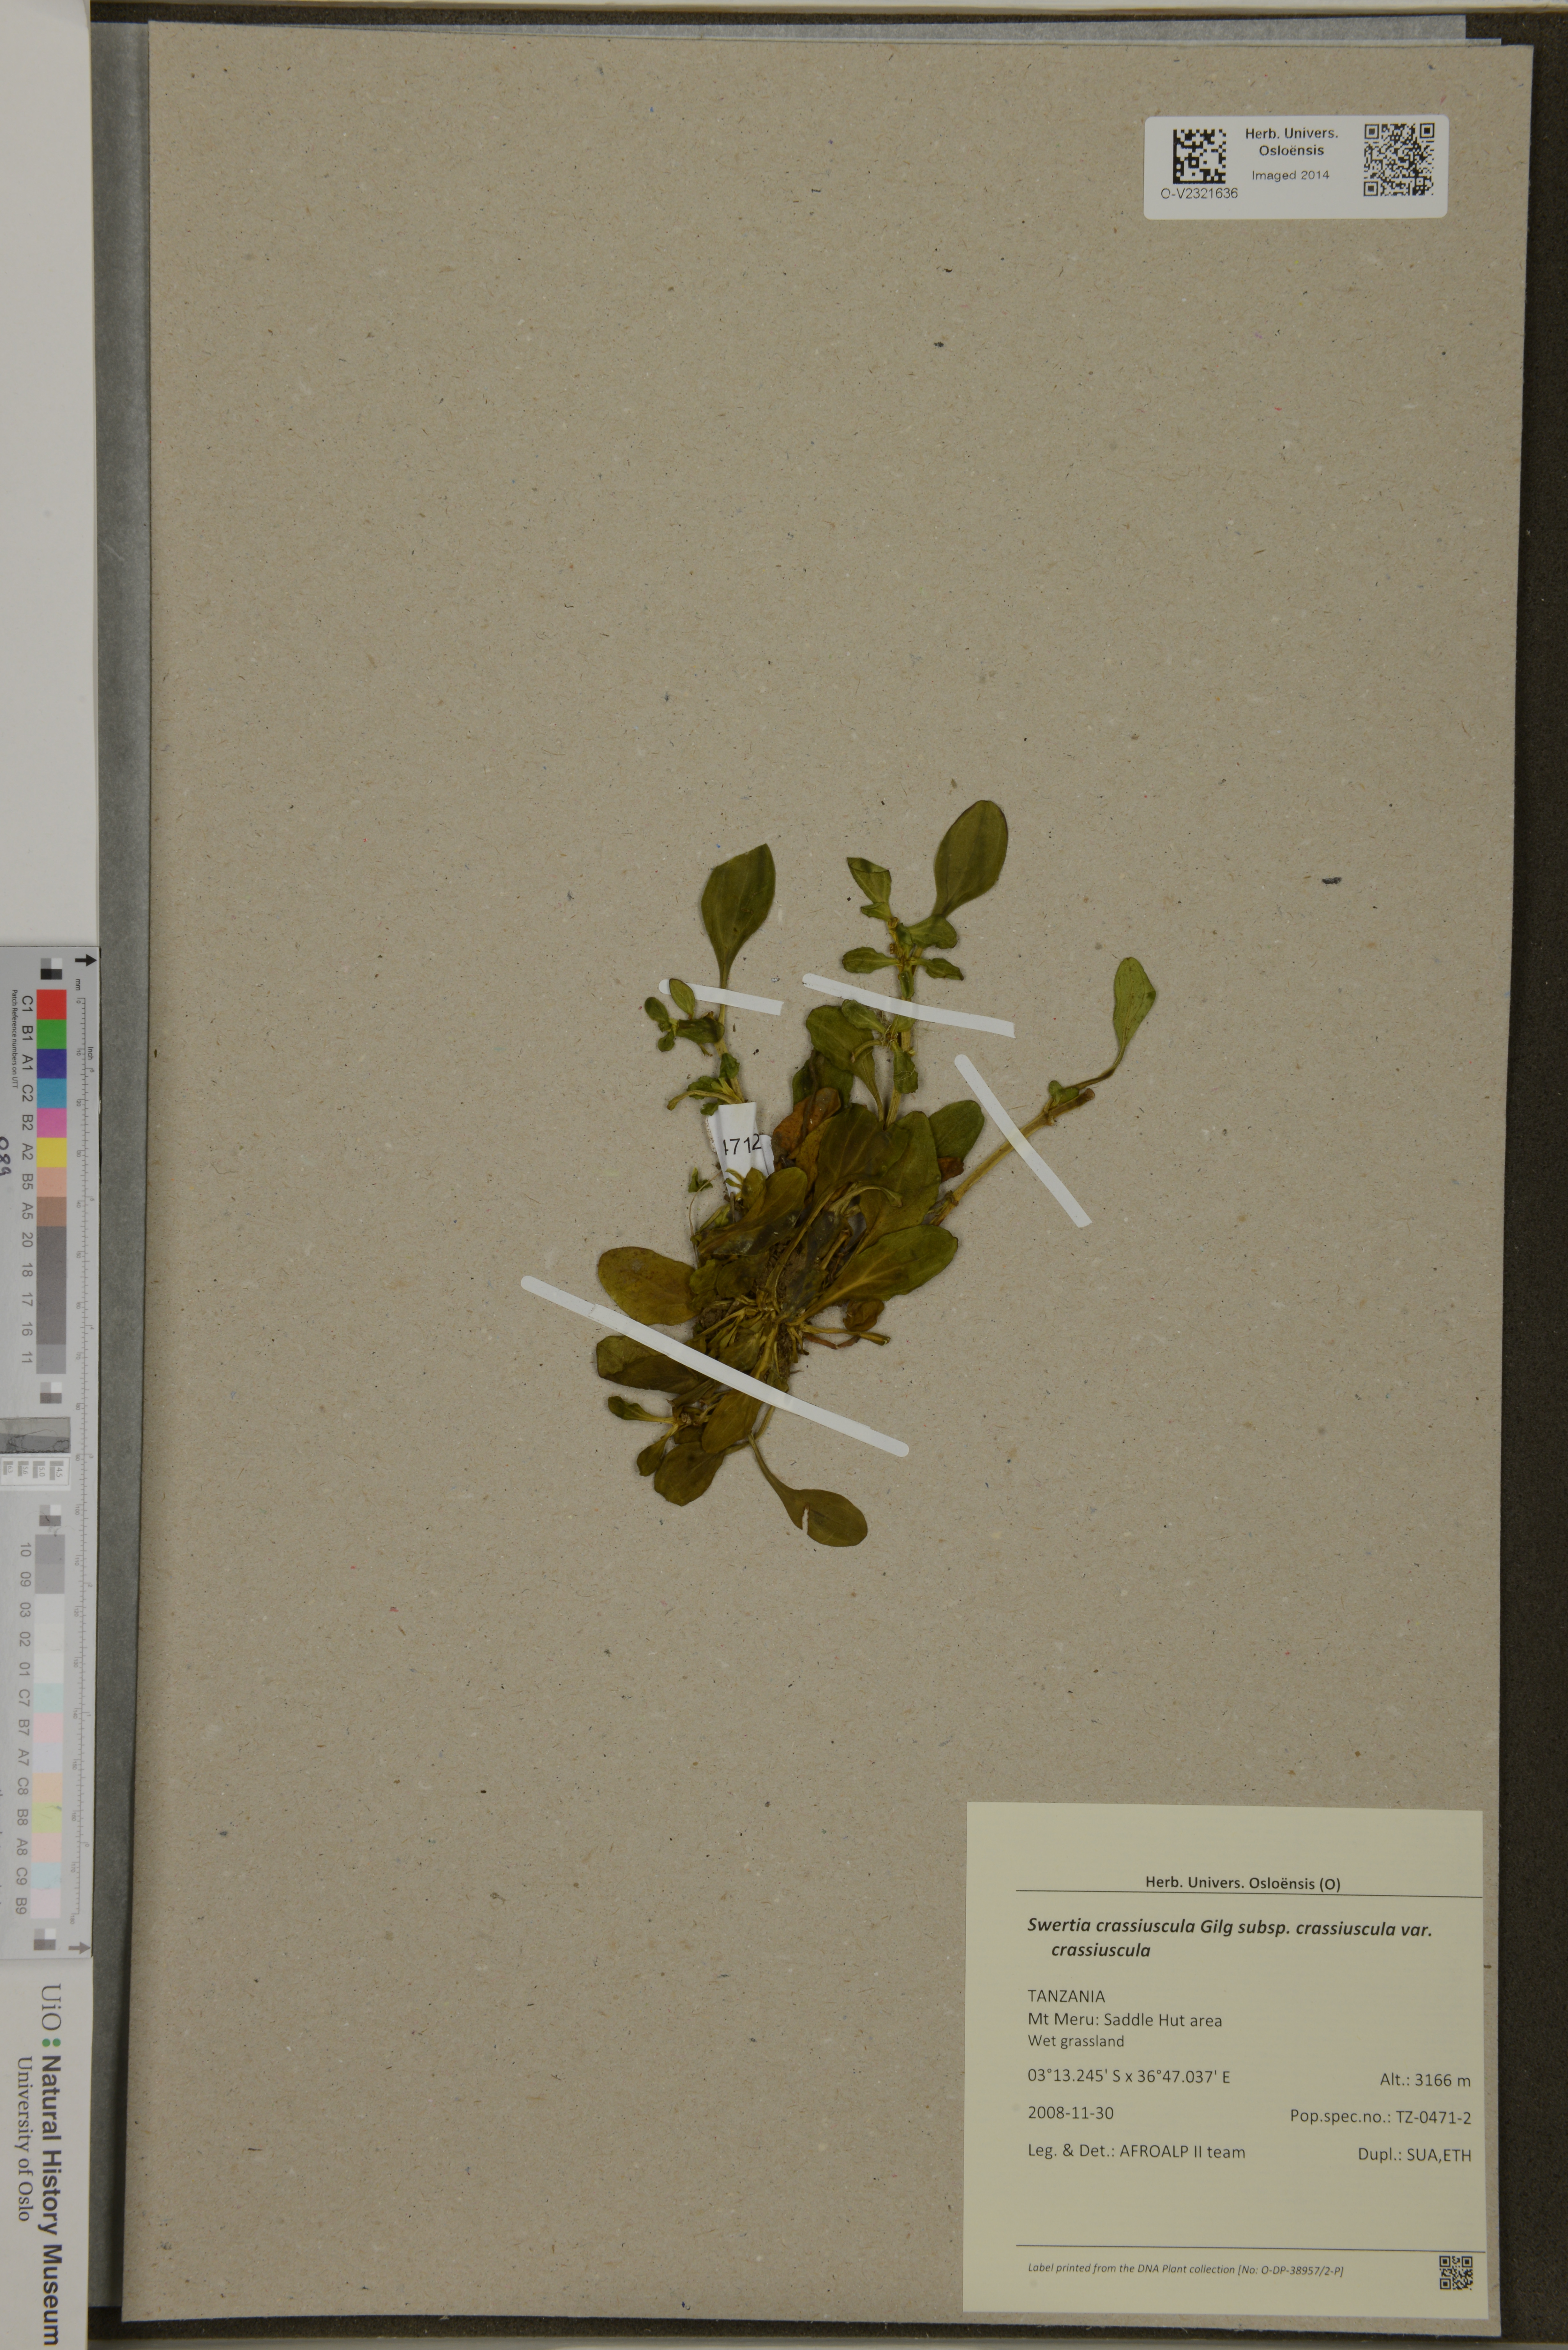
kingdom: Plantae
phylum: Tracheophyta
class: Magnoliopsida
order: Gentianales
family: Gentianaceae
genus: Swertia
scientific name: Swertia crassiuscula
